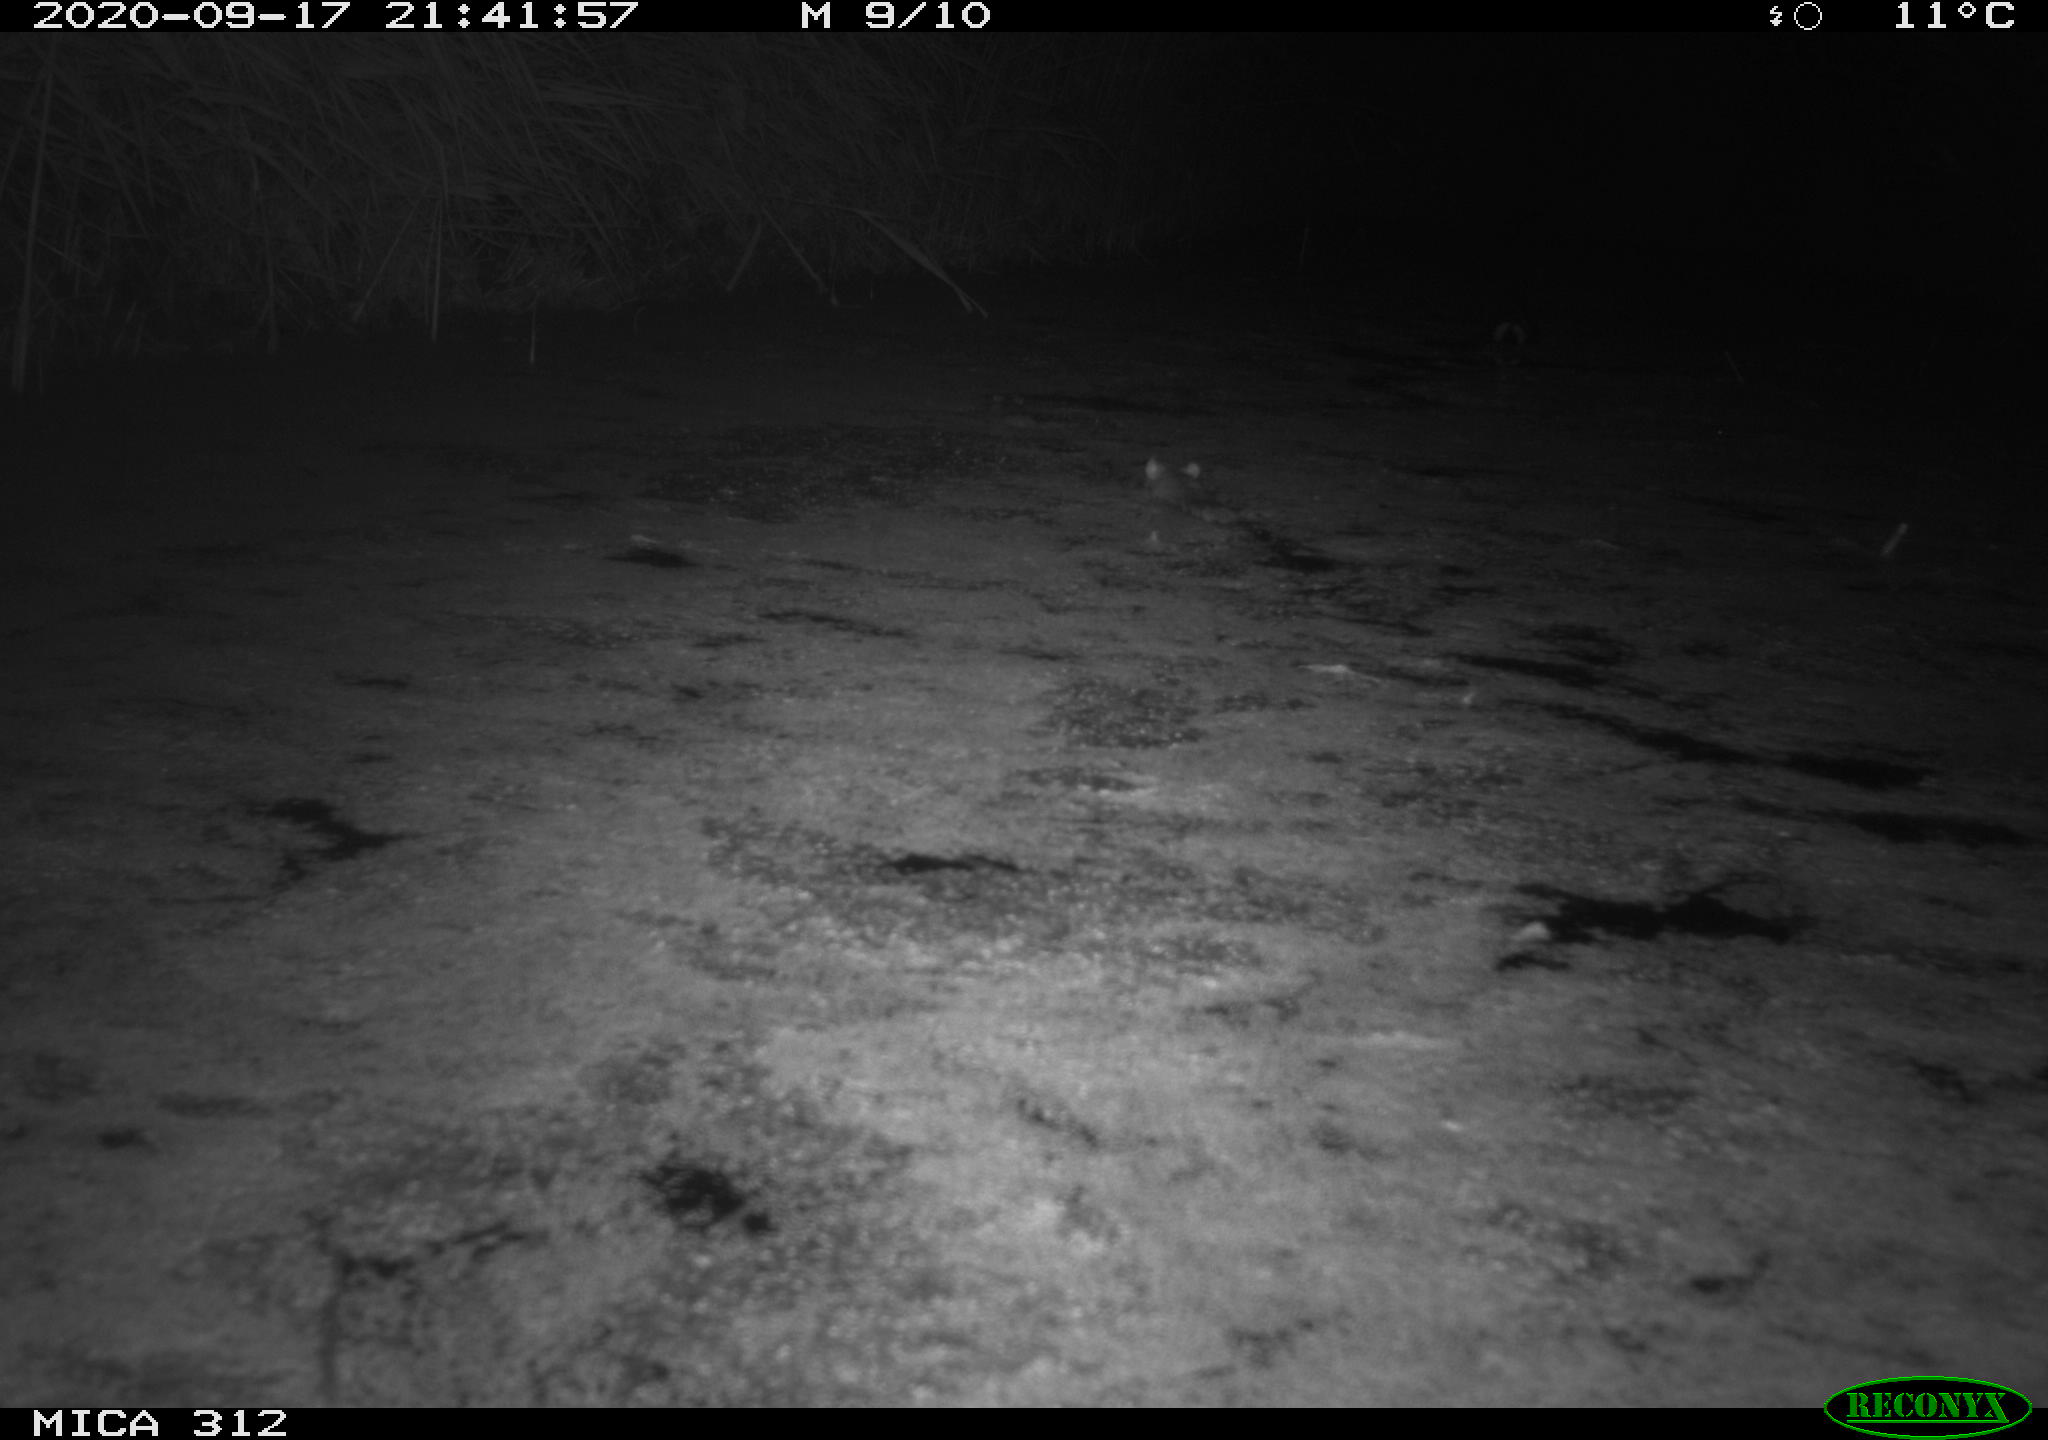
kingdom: Animalia
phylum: Chordata
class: Mammalia
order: Rodentia
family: Muridae
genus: Rattus
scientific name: Rattus norvegicus
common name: Brown rat
